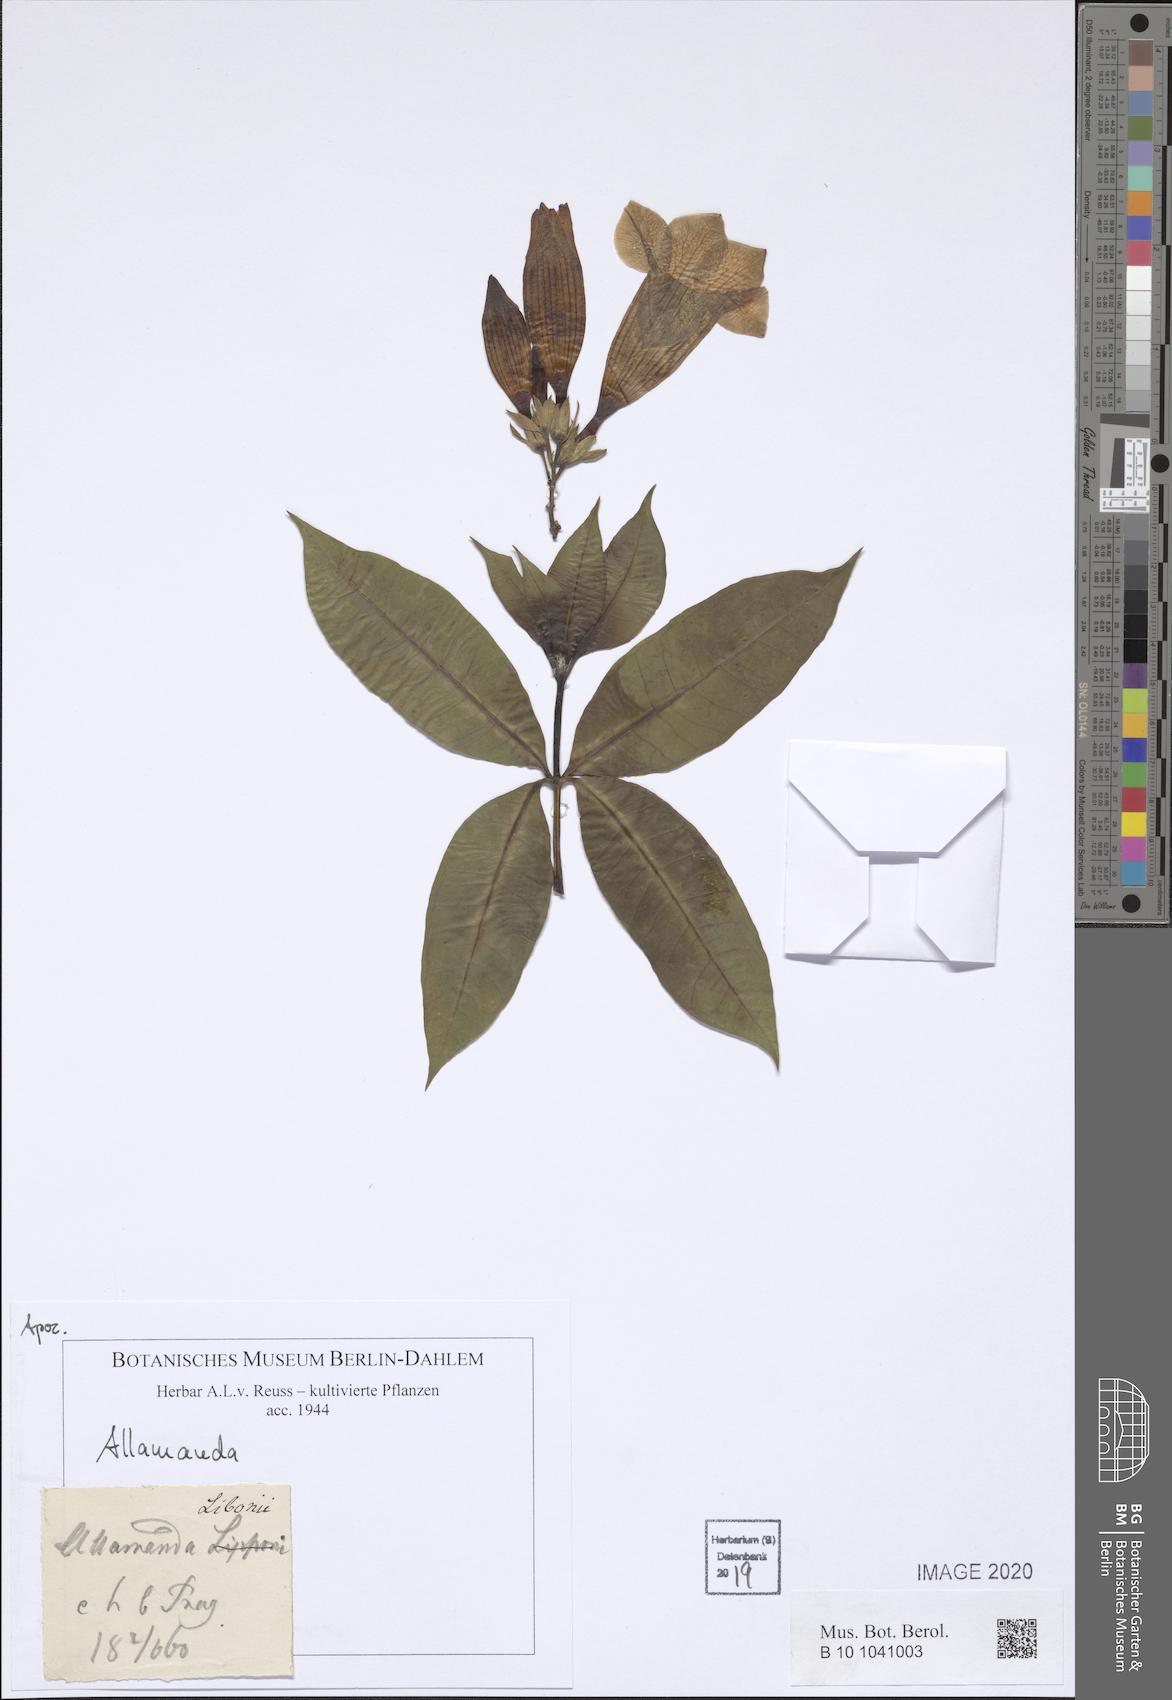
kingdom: Plantae
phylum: Tracheophyta
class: Magnoliopsida
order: Gentianales
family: Apocynaceae
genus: Allamanda
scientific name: Allamanda
